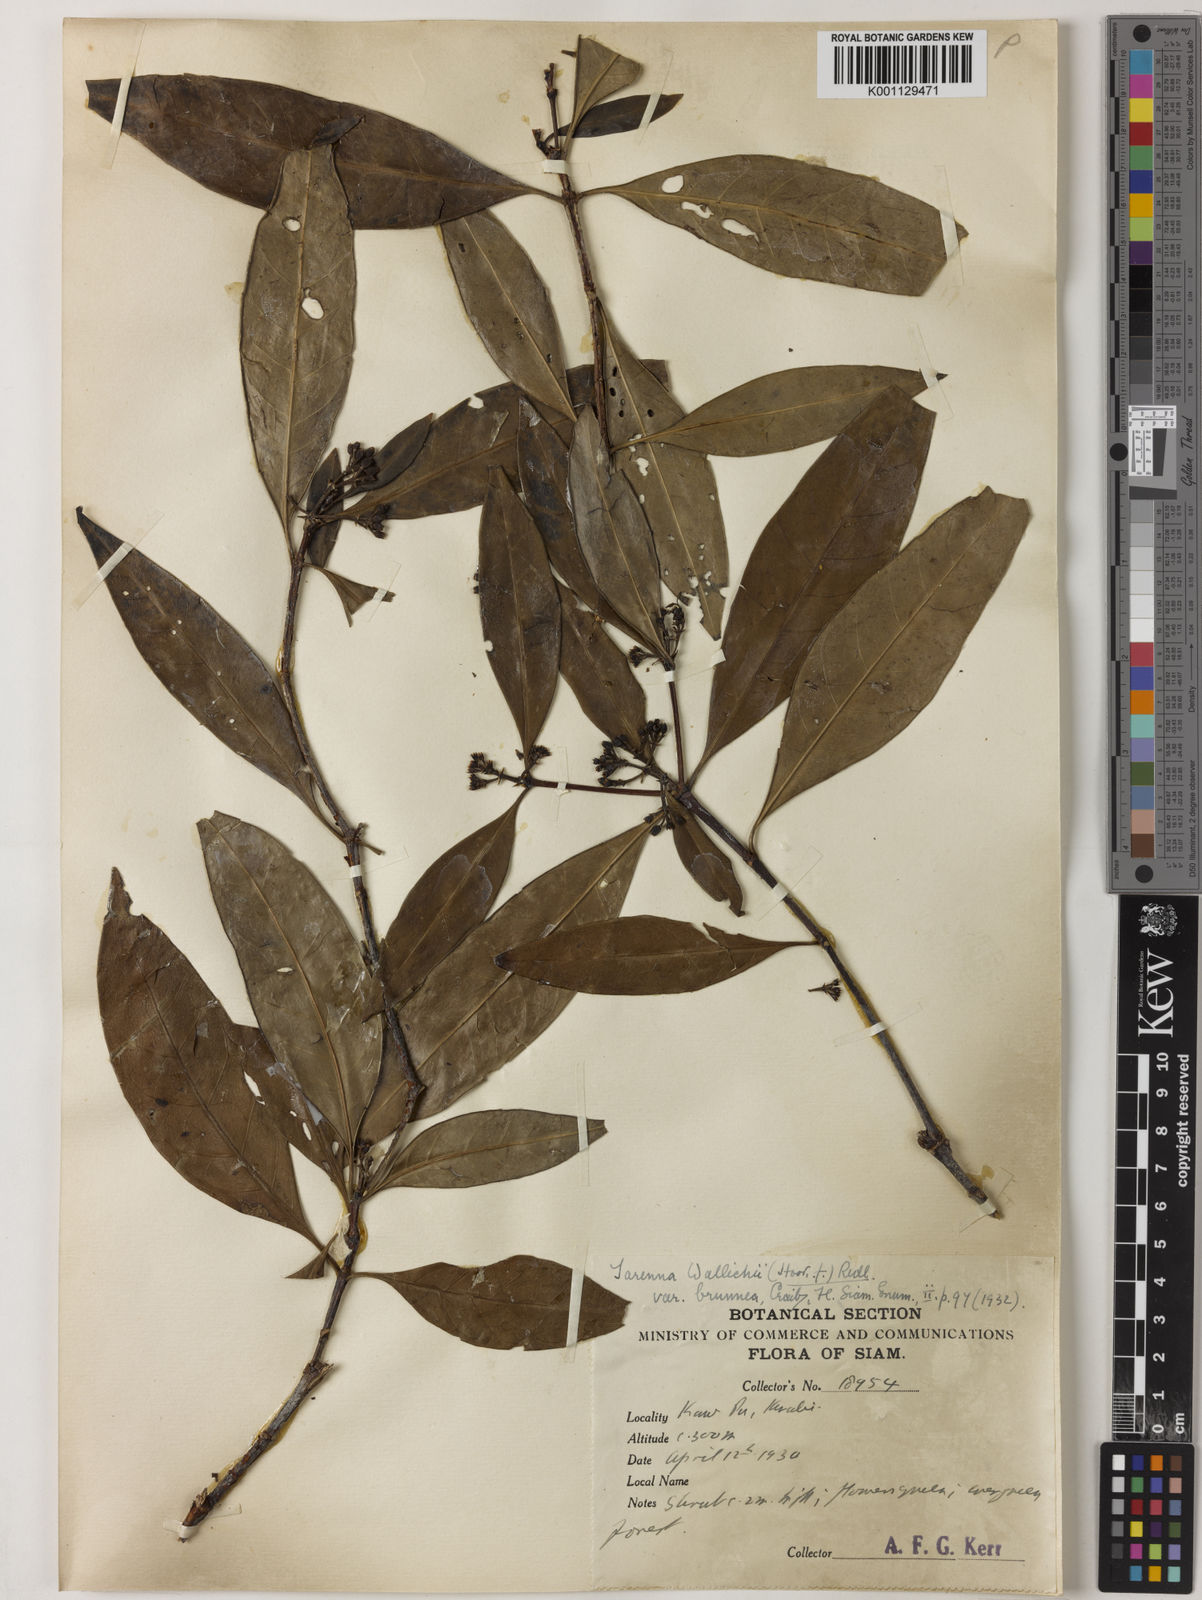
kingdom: Plantae
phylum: Tracheophyta
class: Magnoliopsida
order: Gentianales
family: Rubiaceae
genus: Tarenna
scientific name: Tarenna wallichii
